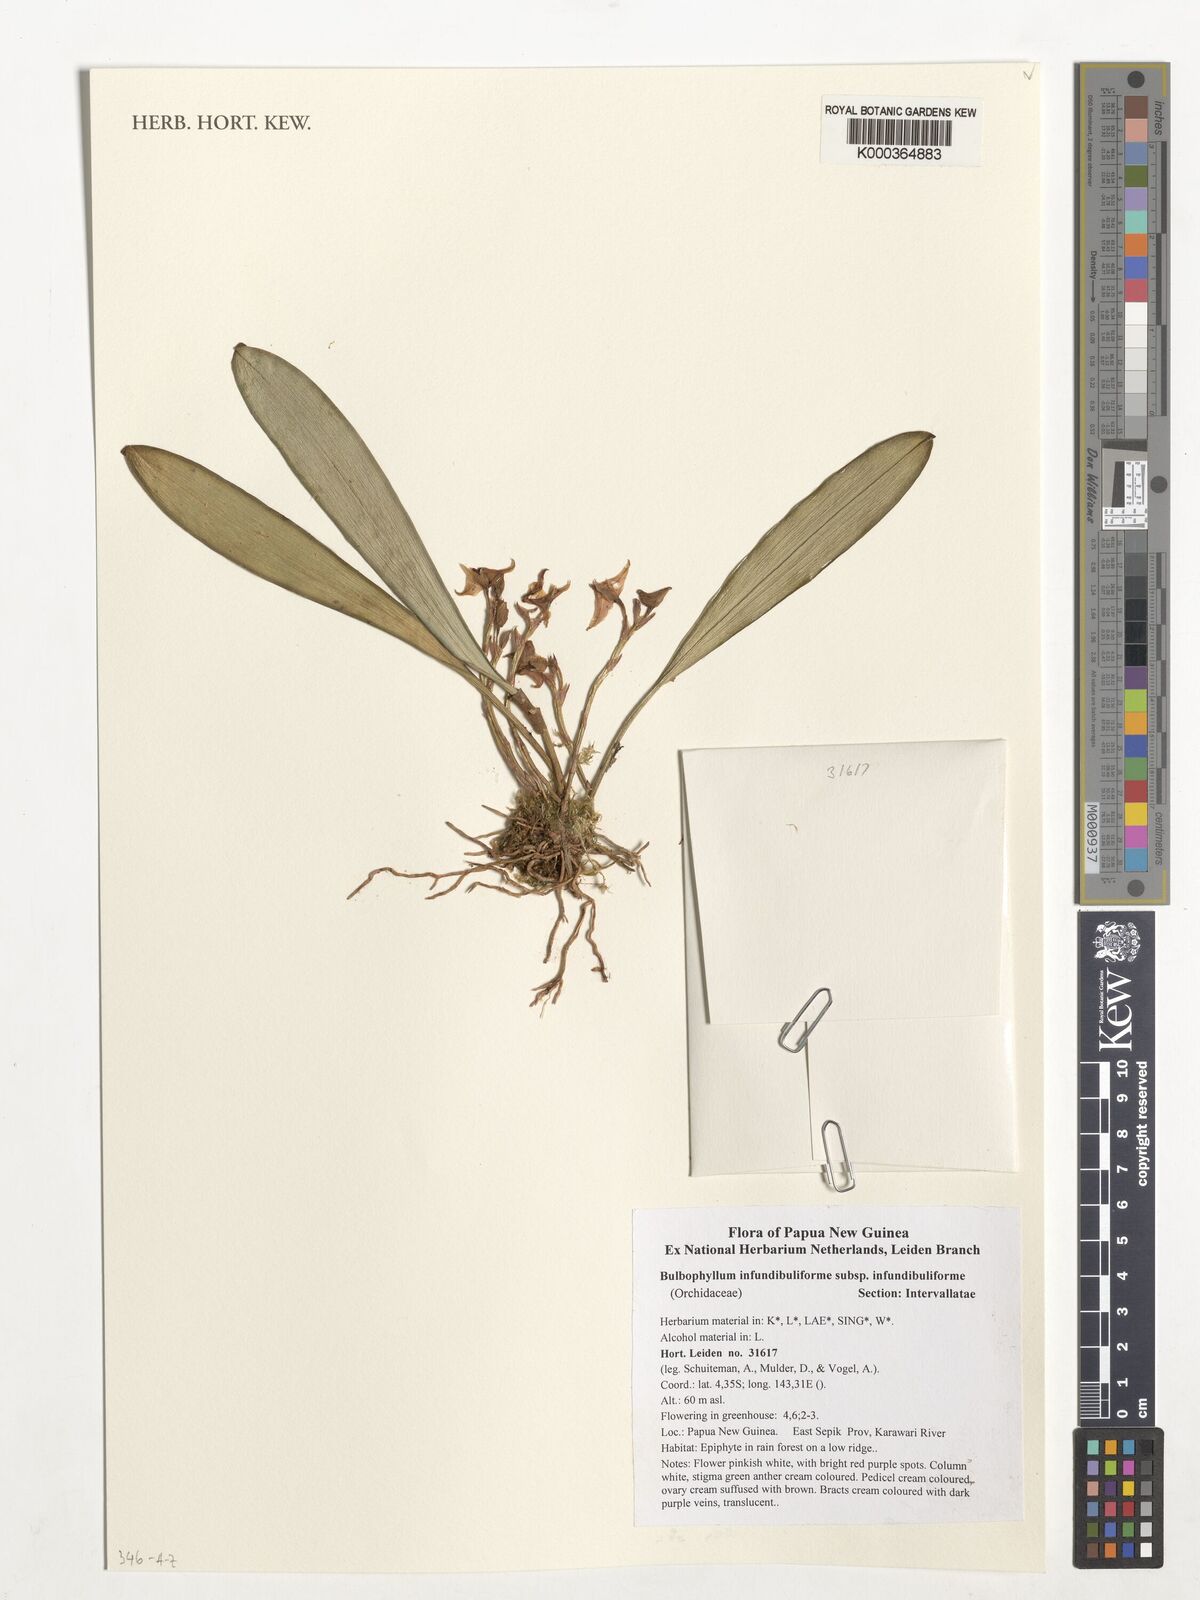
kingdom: Plantae
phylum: Tracheophyta
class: Liliopsida
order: Asparagales
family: Orchidaceae
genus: Bulbophyllum
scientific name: Bulbophyllum infundibuliforme
